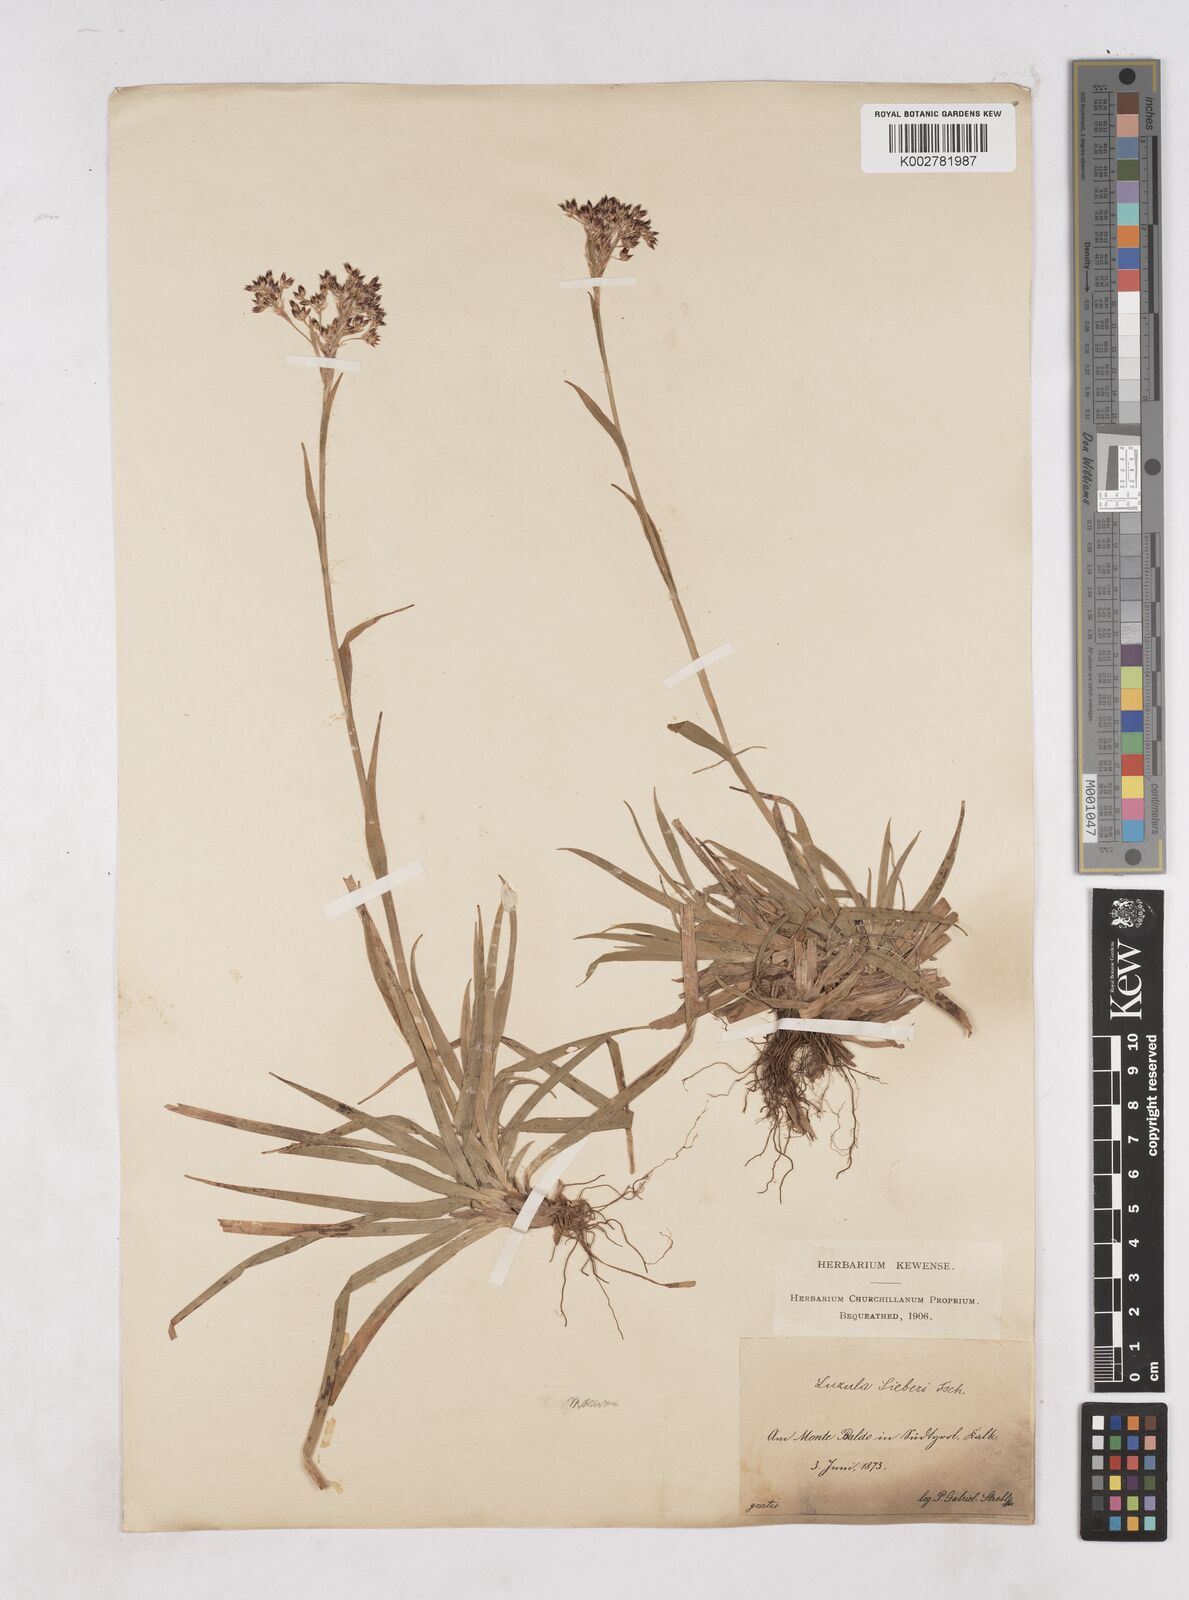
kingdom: Plantae
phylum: Tracheophyta
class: Liliopsida
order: Poales
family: Juncaceae
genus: Luzula
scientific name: Luzula sylvatica
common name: Great wood-rush
